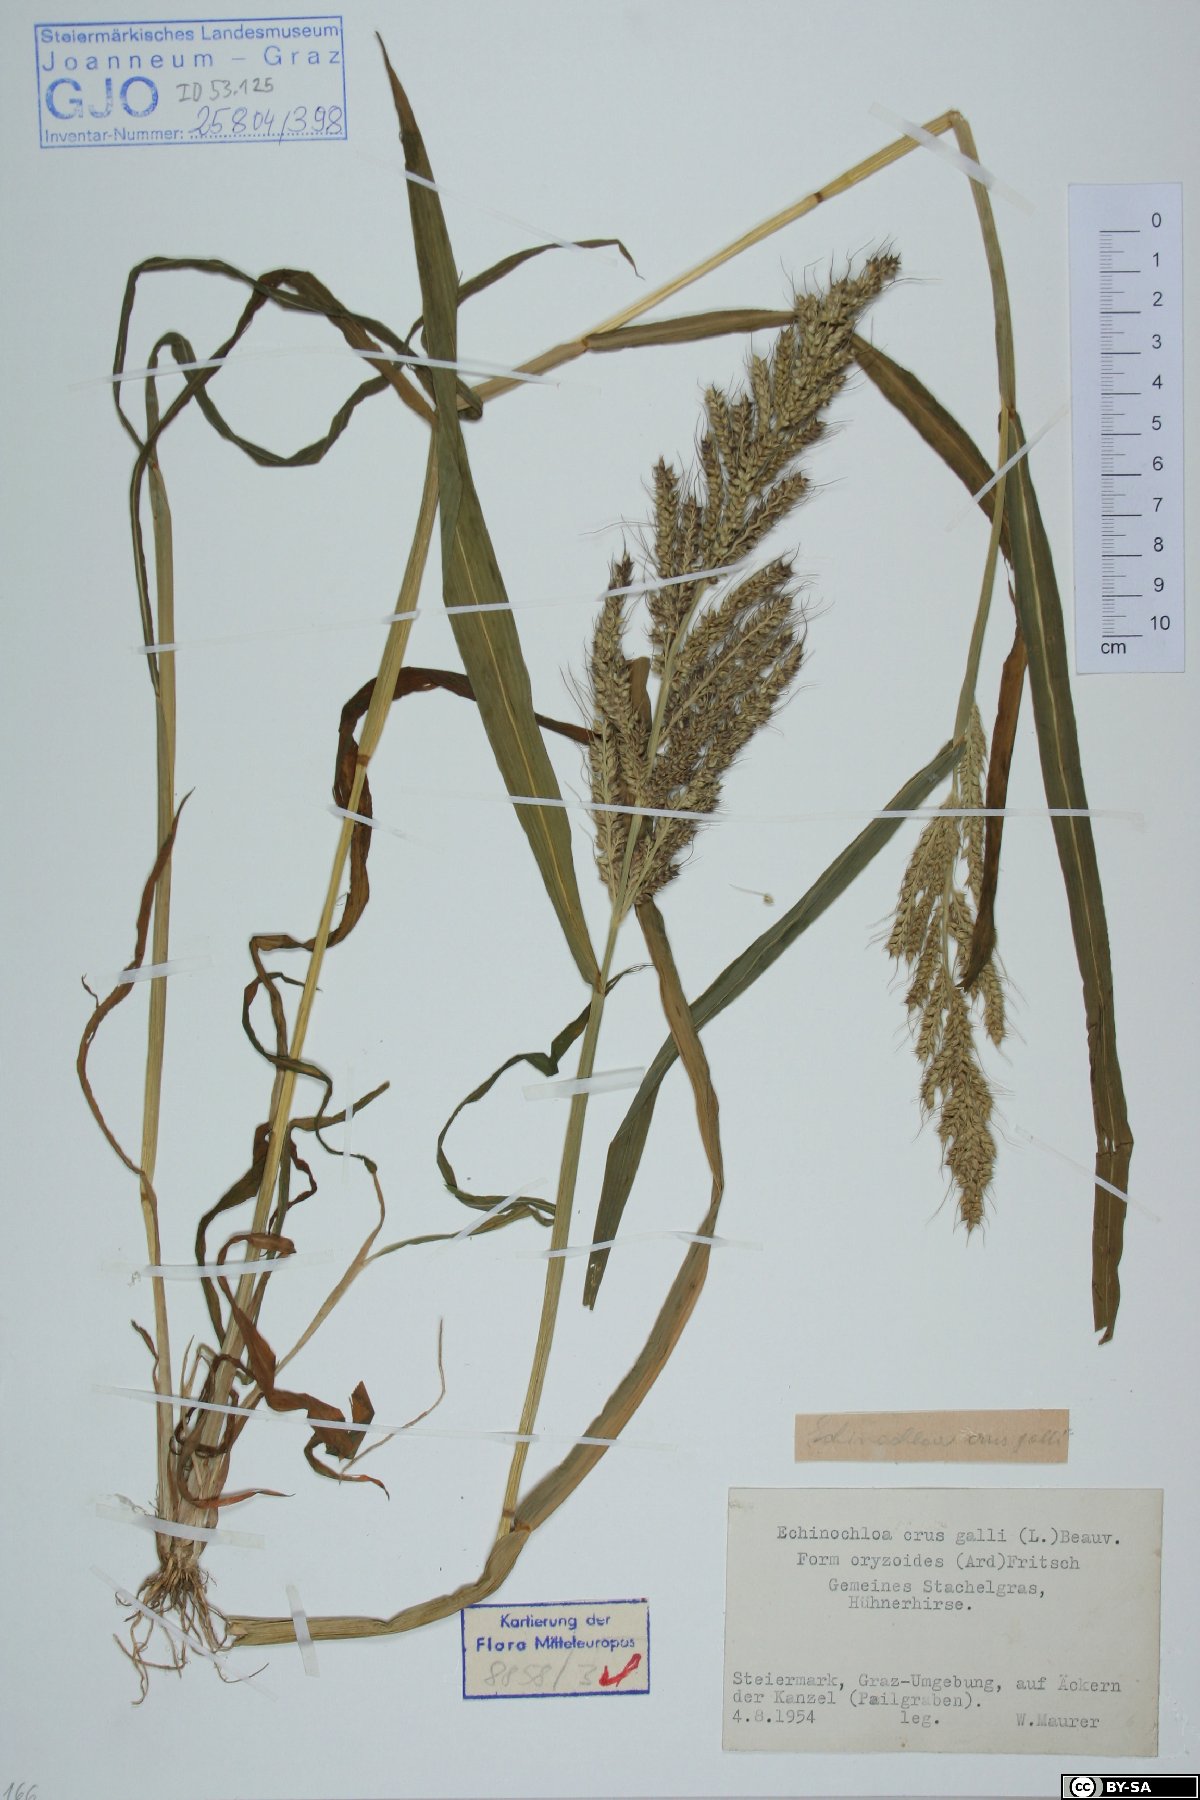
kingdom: Plantae
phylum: Tracheophyta
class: Liliopsida
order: Poales
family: Poaceae
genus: Echinochloa
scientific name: Echinochloa crus-galli
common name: Cockspur
